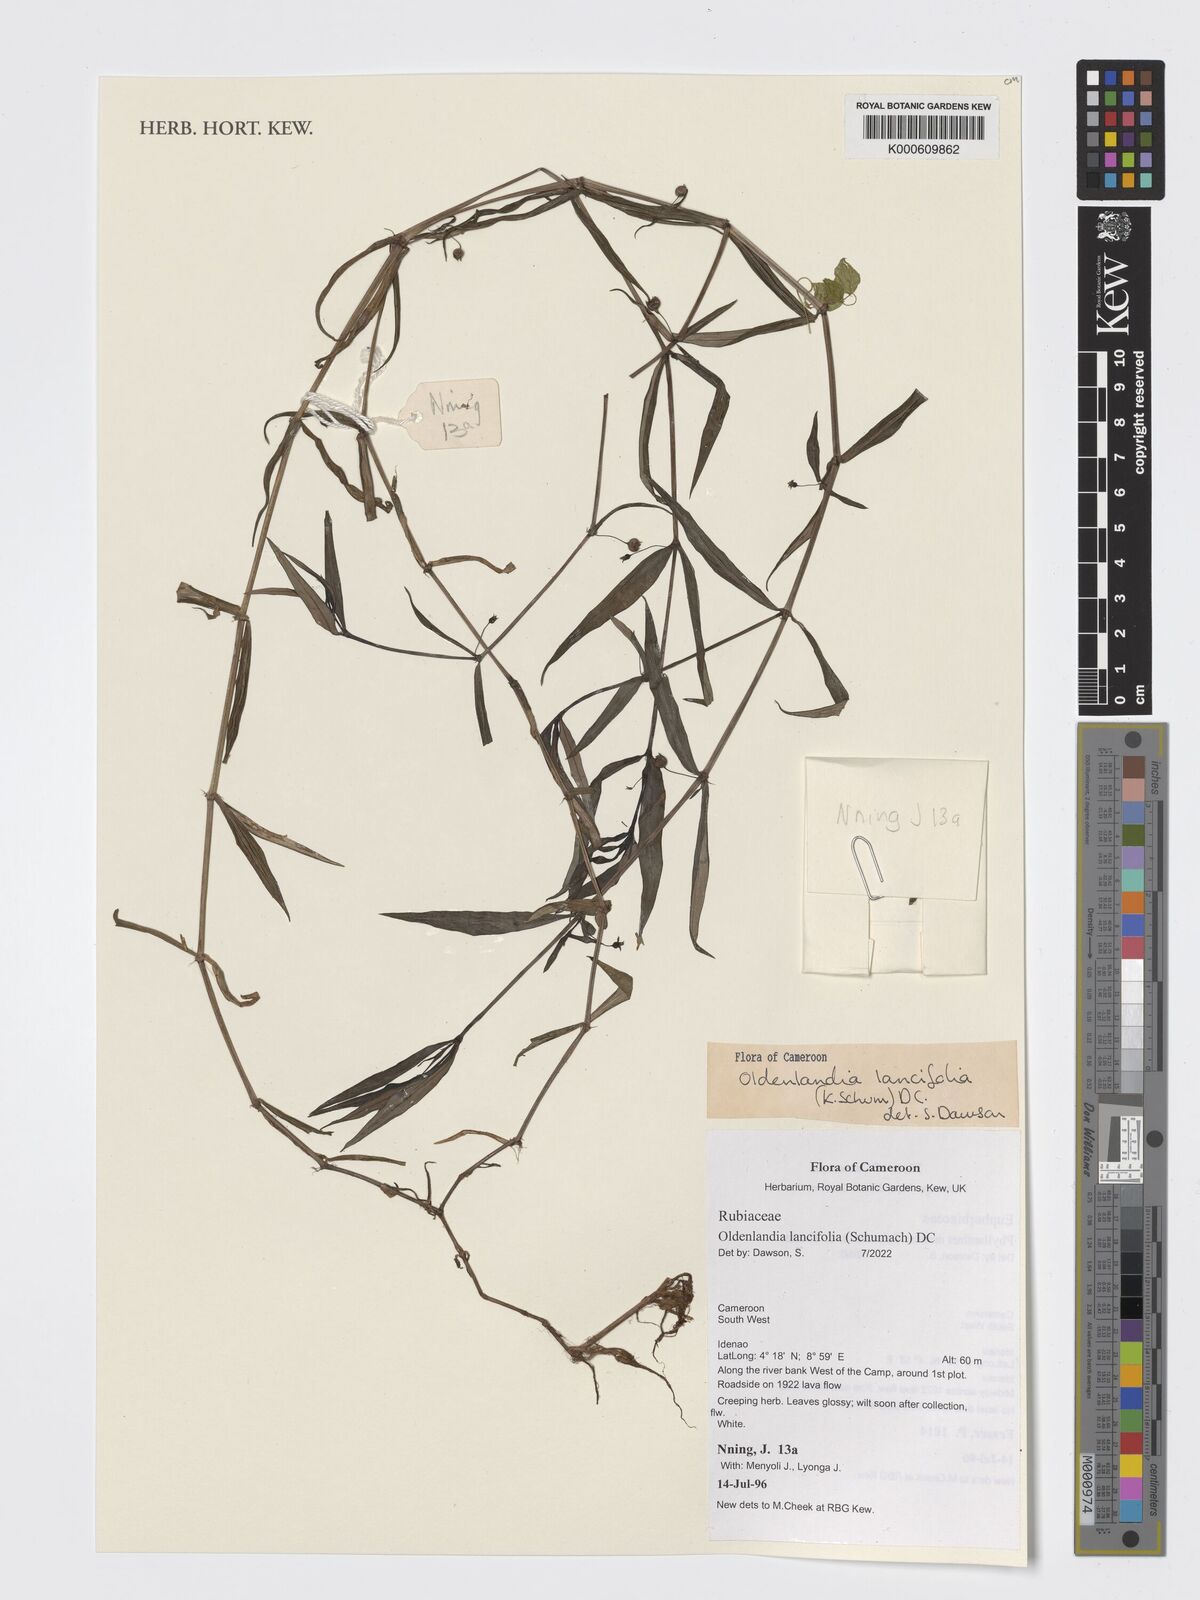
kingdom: Plantae
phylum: Tracheophyta
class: Magnoliopsida
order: Gentianales
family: Rubiaceae
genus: Oldenlandia
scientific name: Oldenlandia lancifolia
